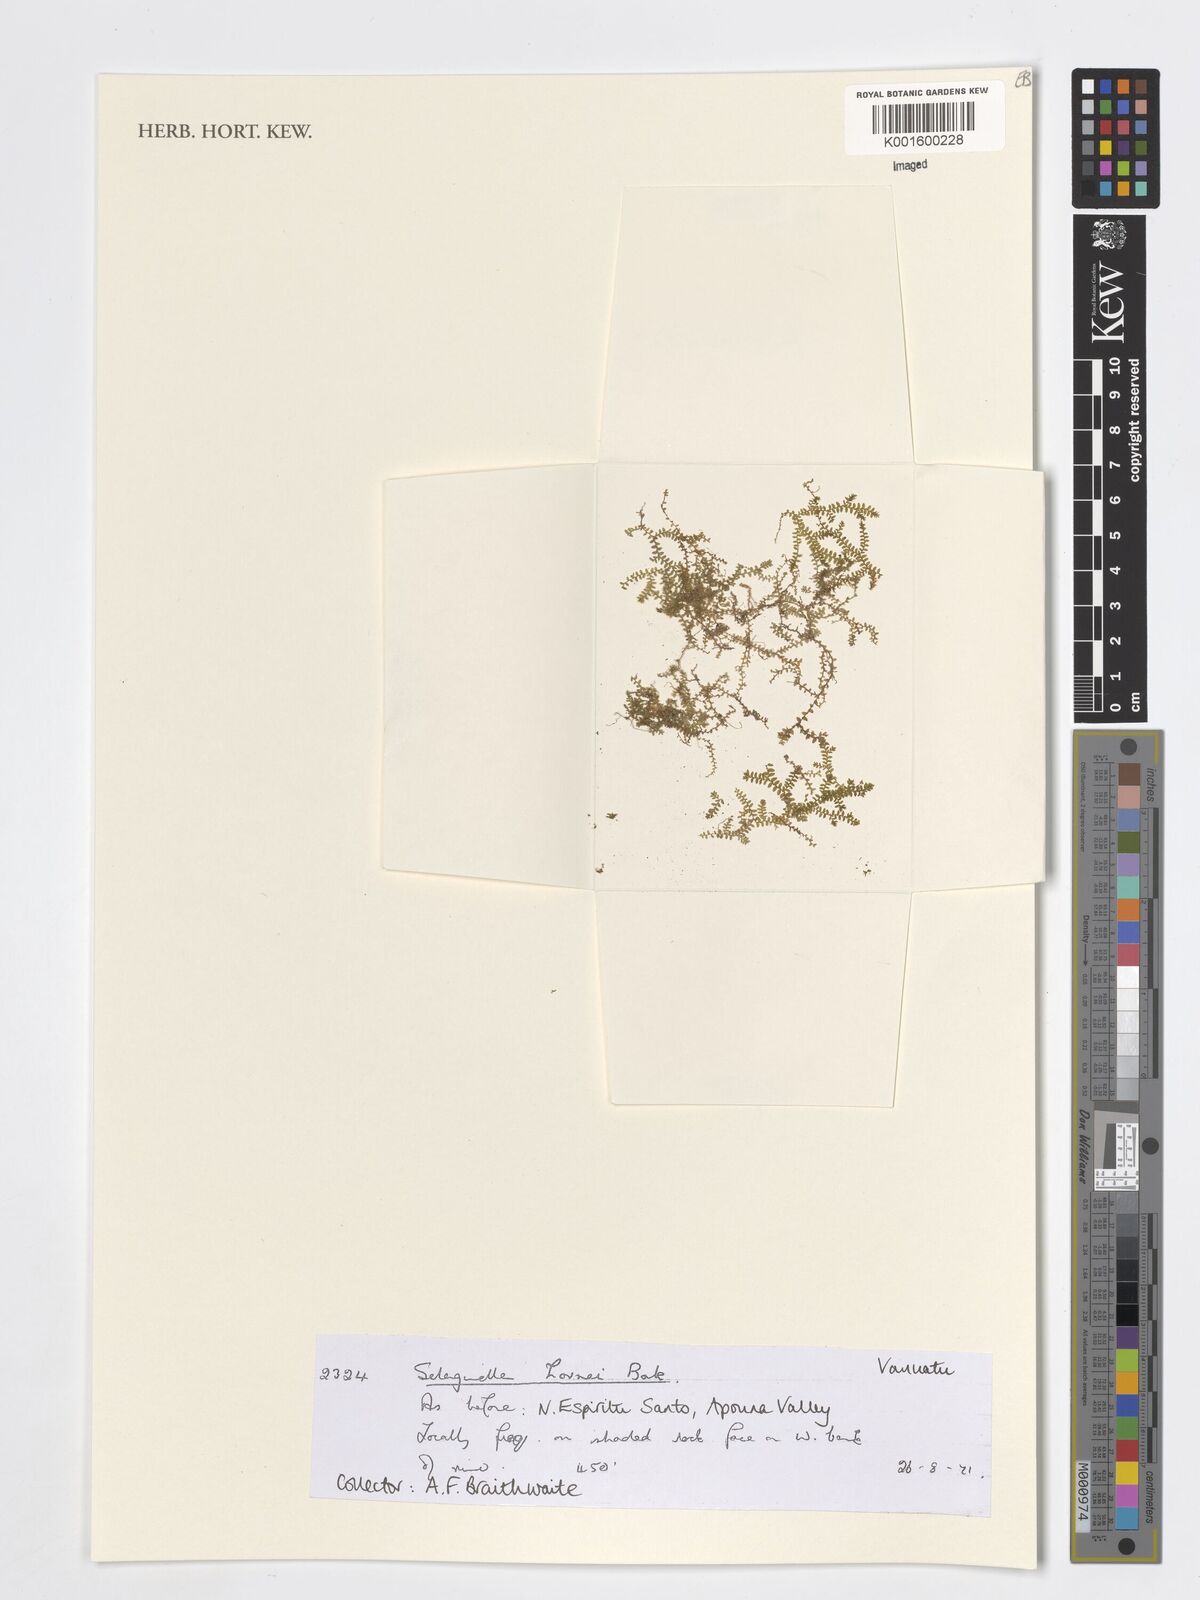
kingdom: Plantae
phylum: Tracheophyta
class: Lycopodiopsida
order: Selaginellales
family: Selaginellaceae
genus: Selaginella
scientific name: Selaginella
